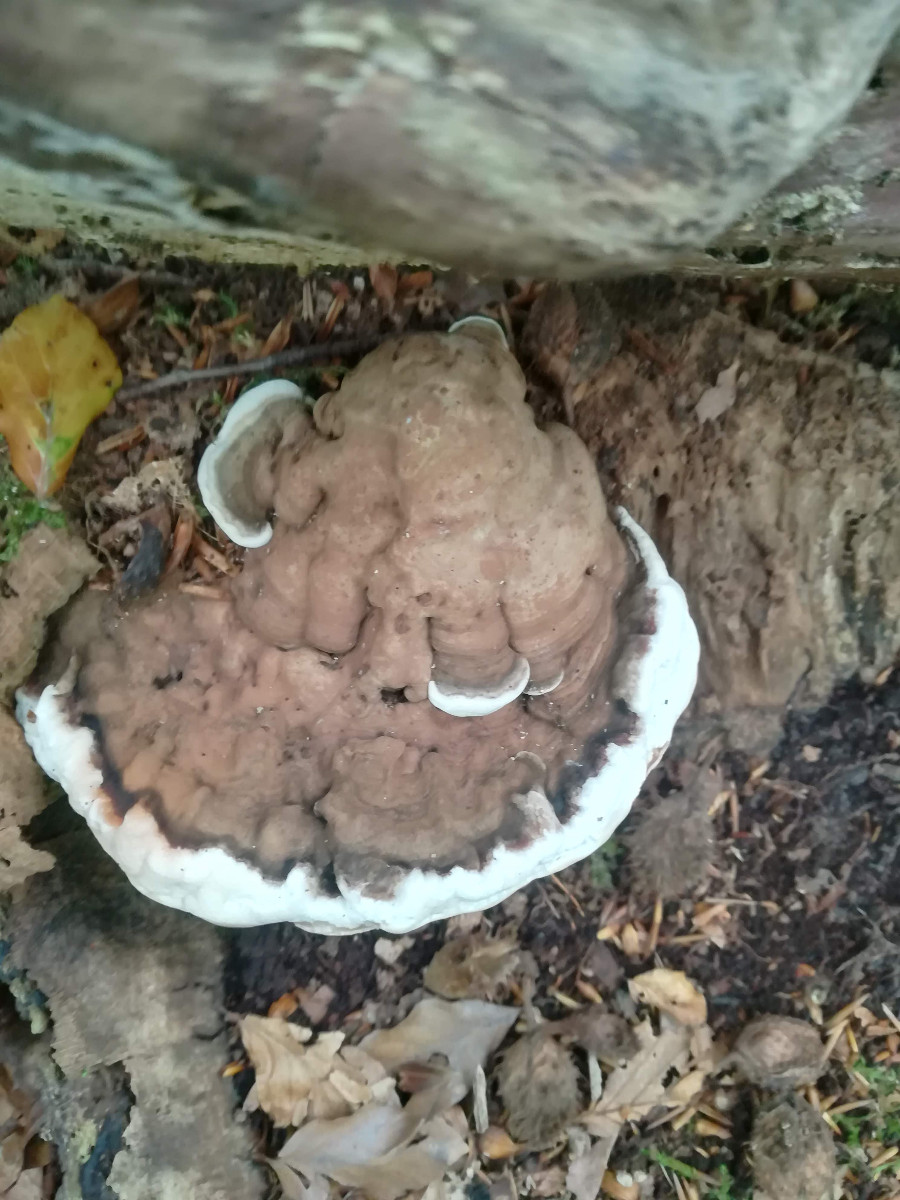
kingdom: Fungi
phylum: Basidiomycota
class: Agaricomycetes
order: Polyporales
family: Polyporaceae
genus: Ganoderma
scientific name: Ganoderma applanatum
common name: flad lakporesvamp
